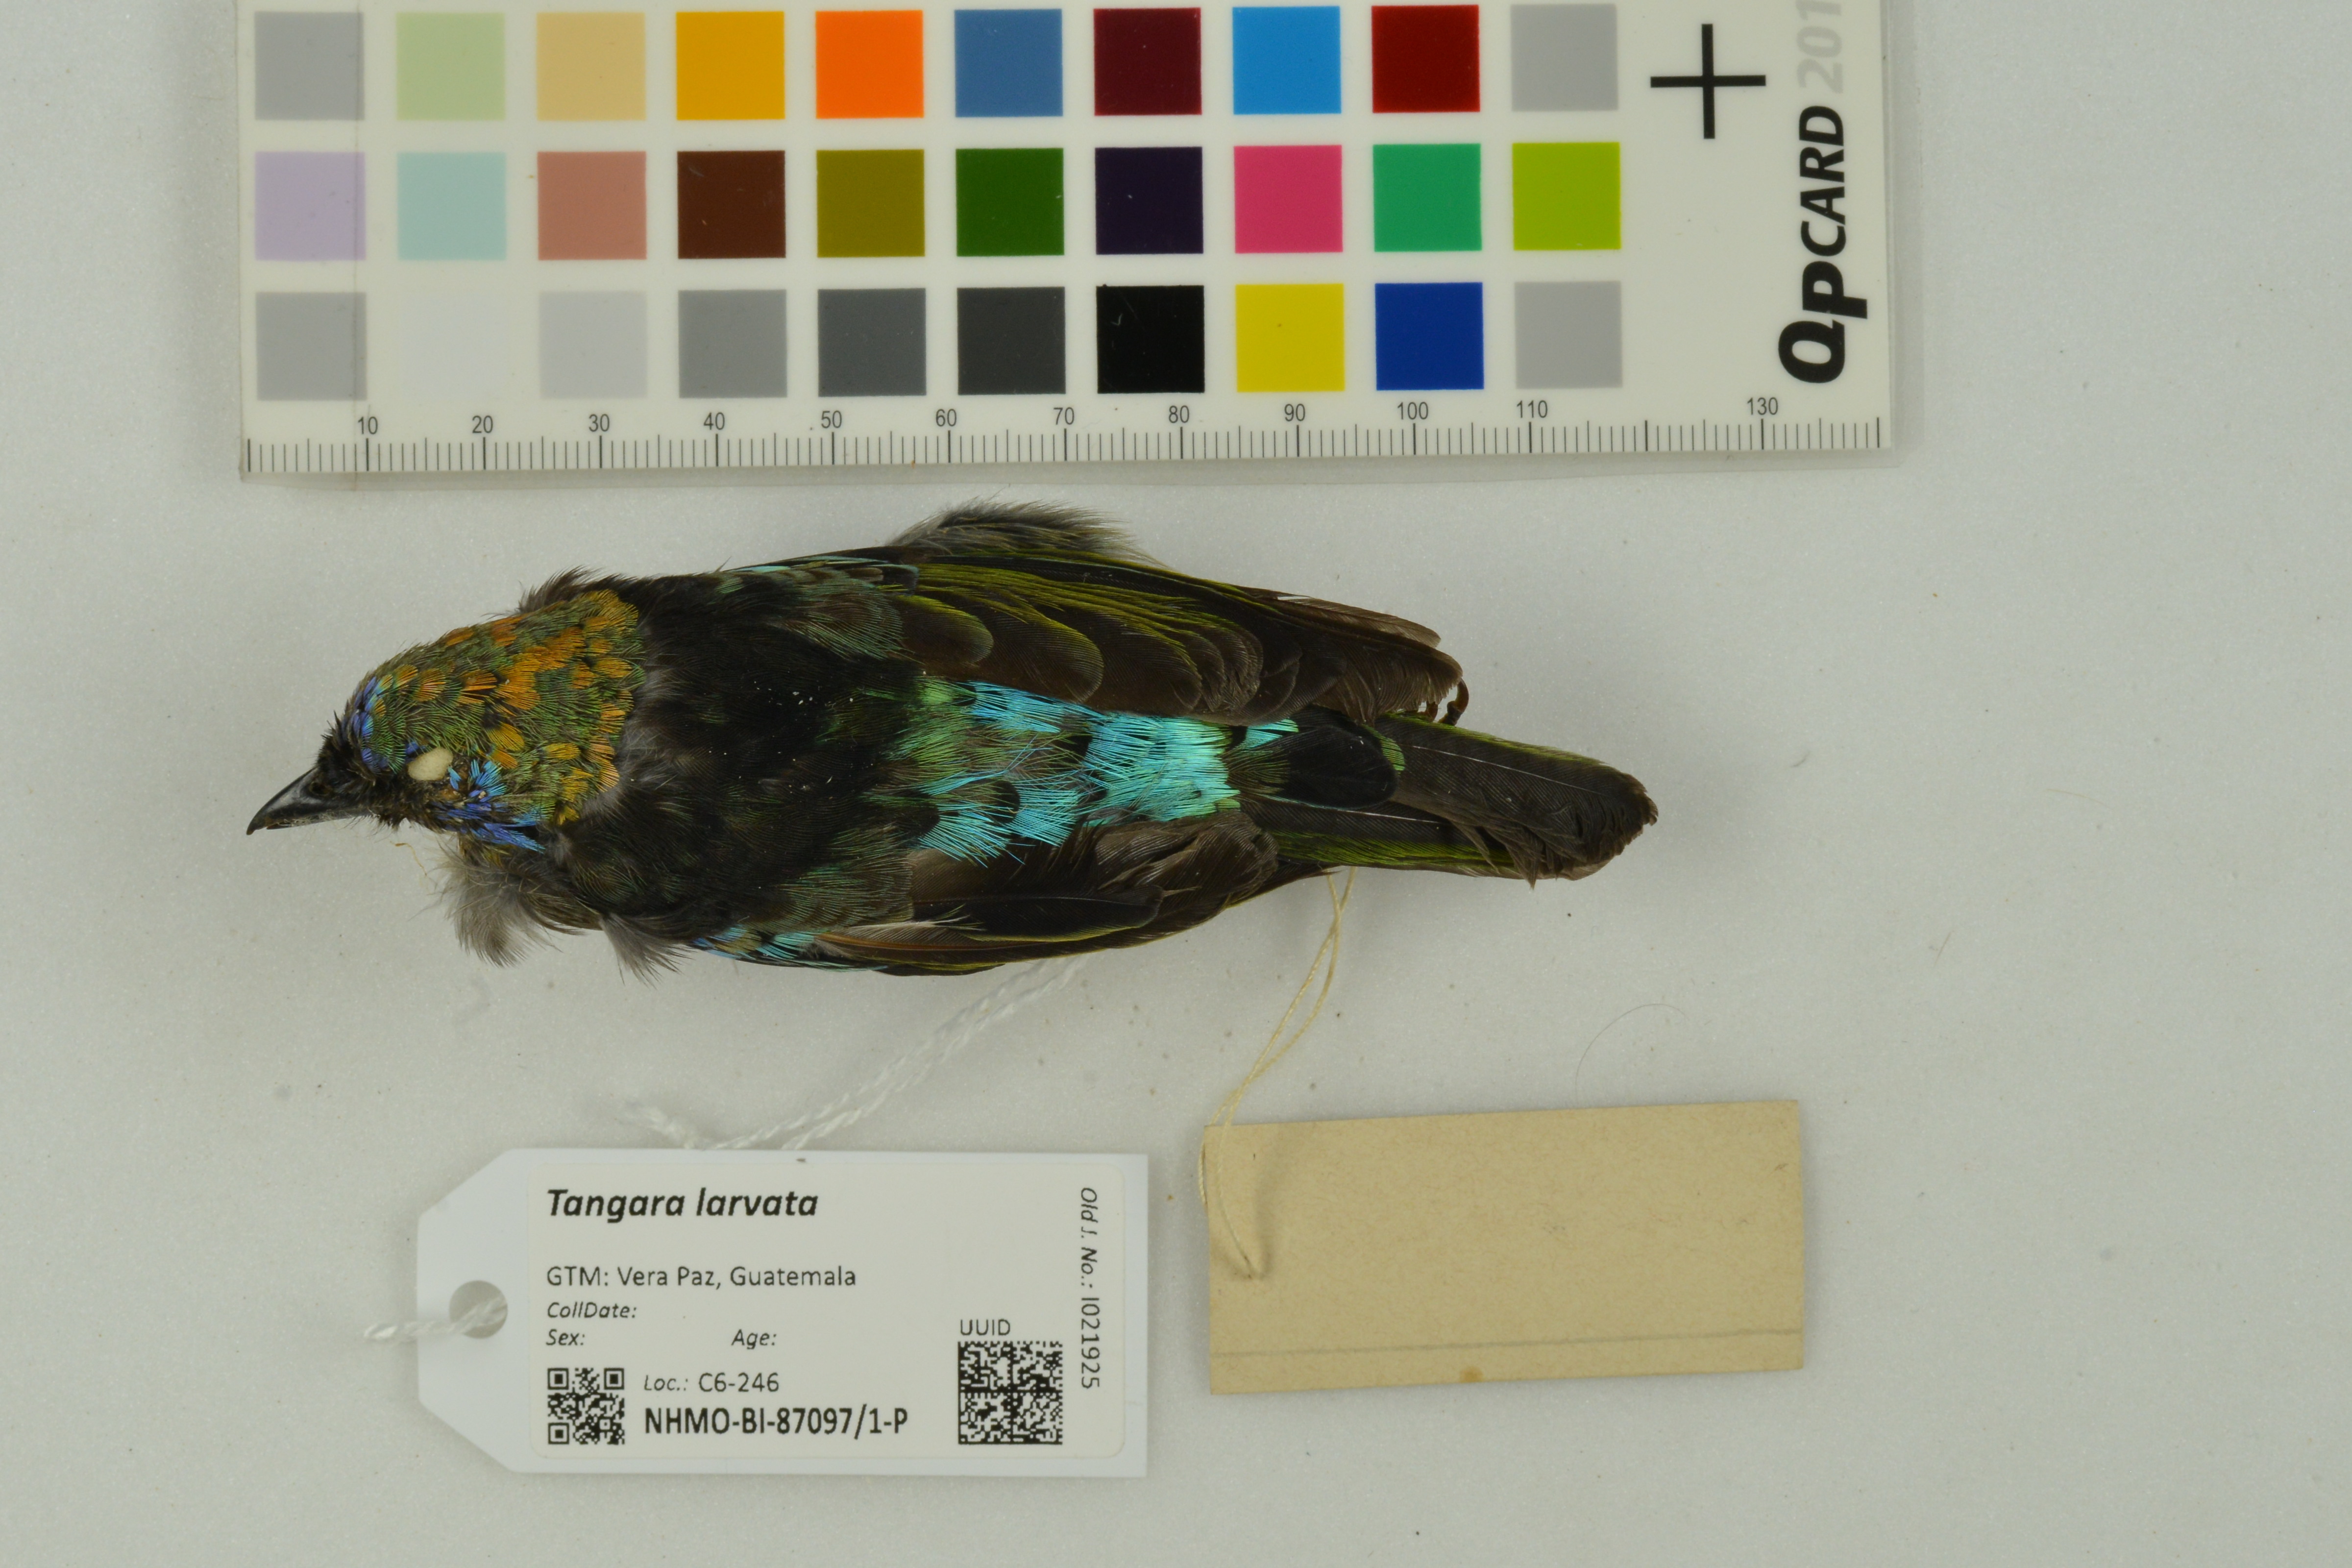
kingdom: Animalia
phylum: Chordata
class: Aves
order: Passeriformes
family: Thraupidae
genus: Stilpnia
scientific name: Stilpnia larvata
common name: Golden-hooded tanager
